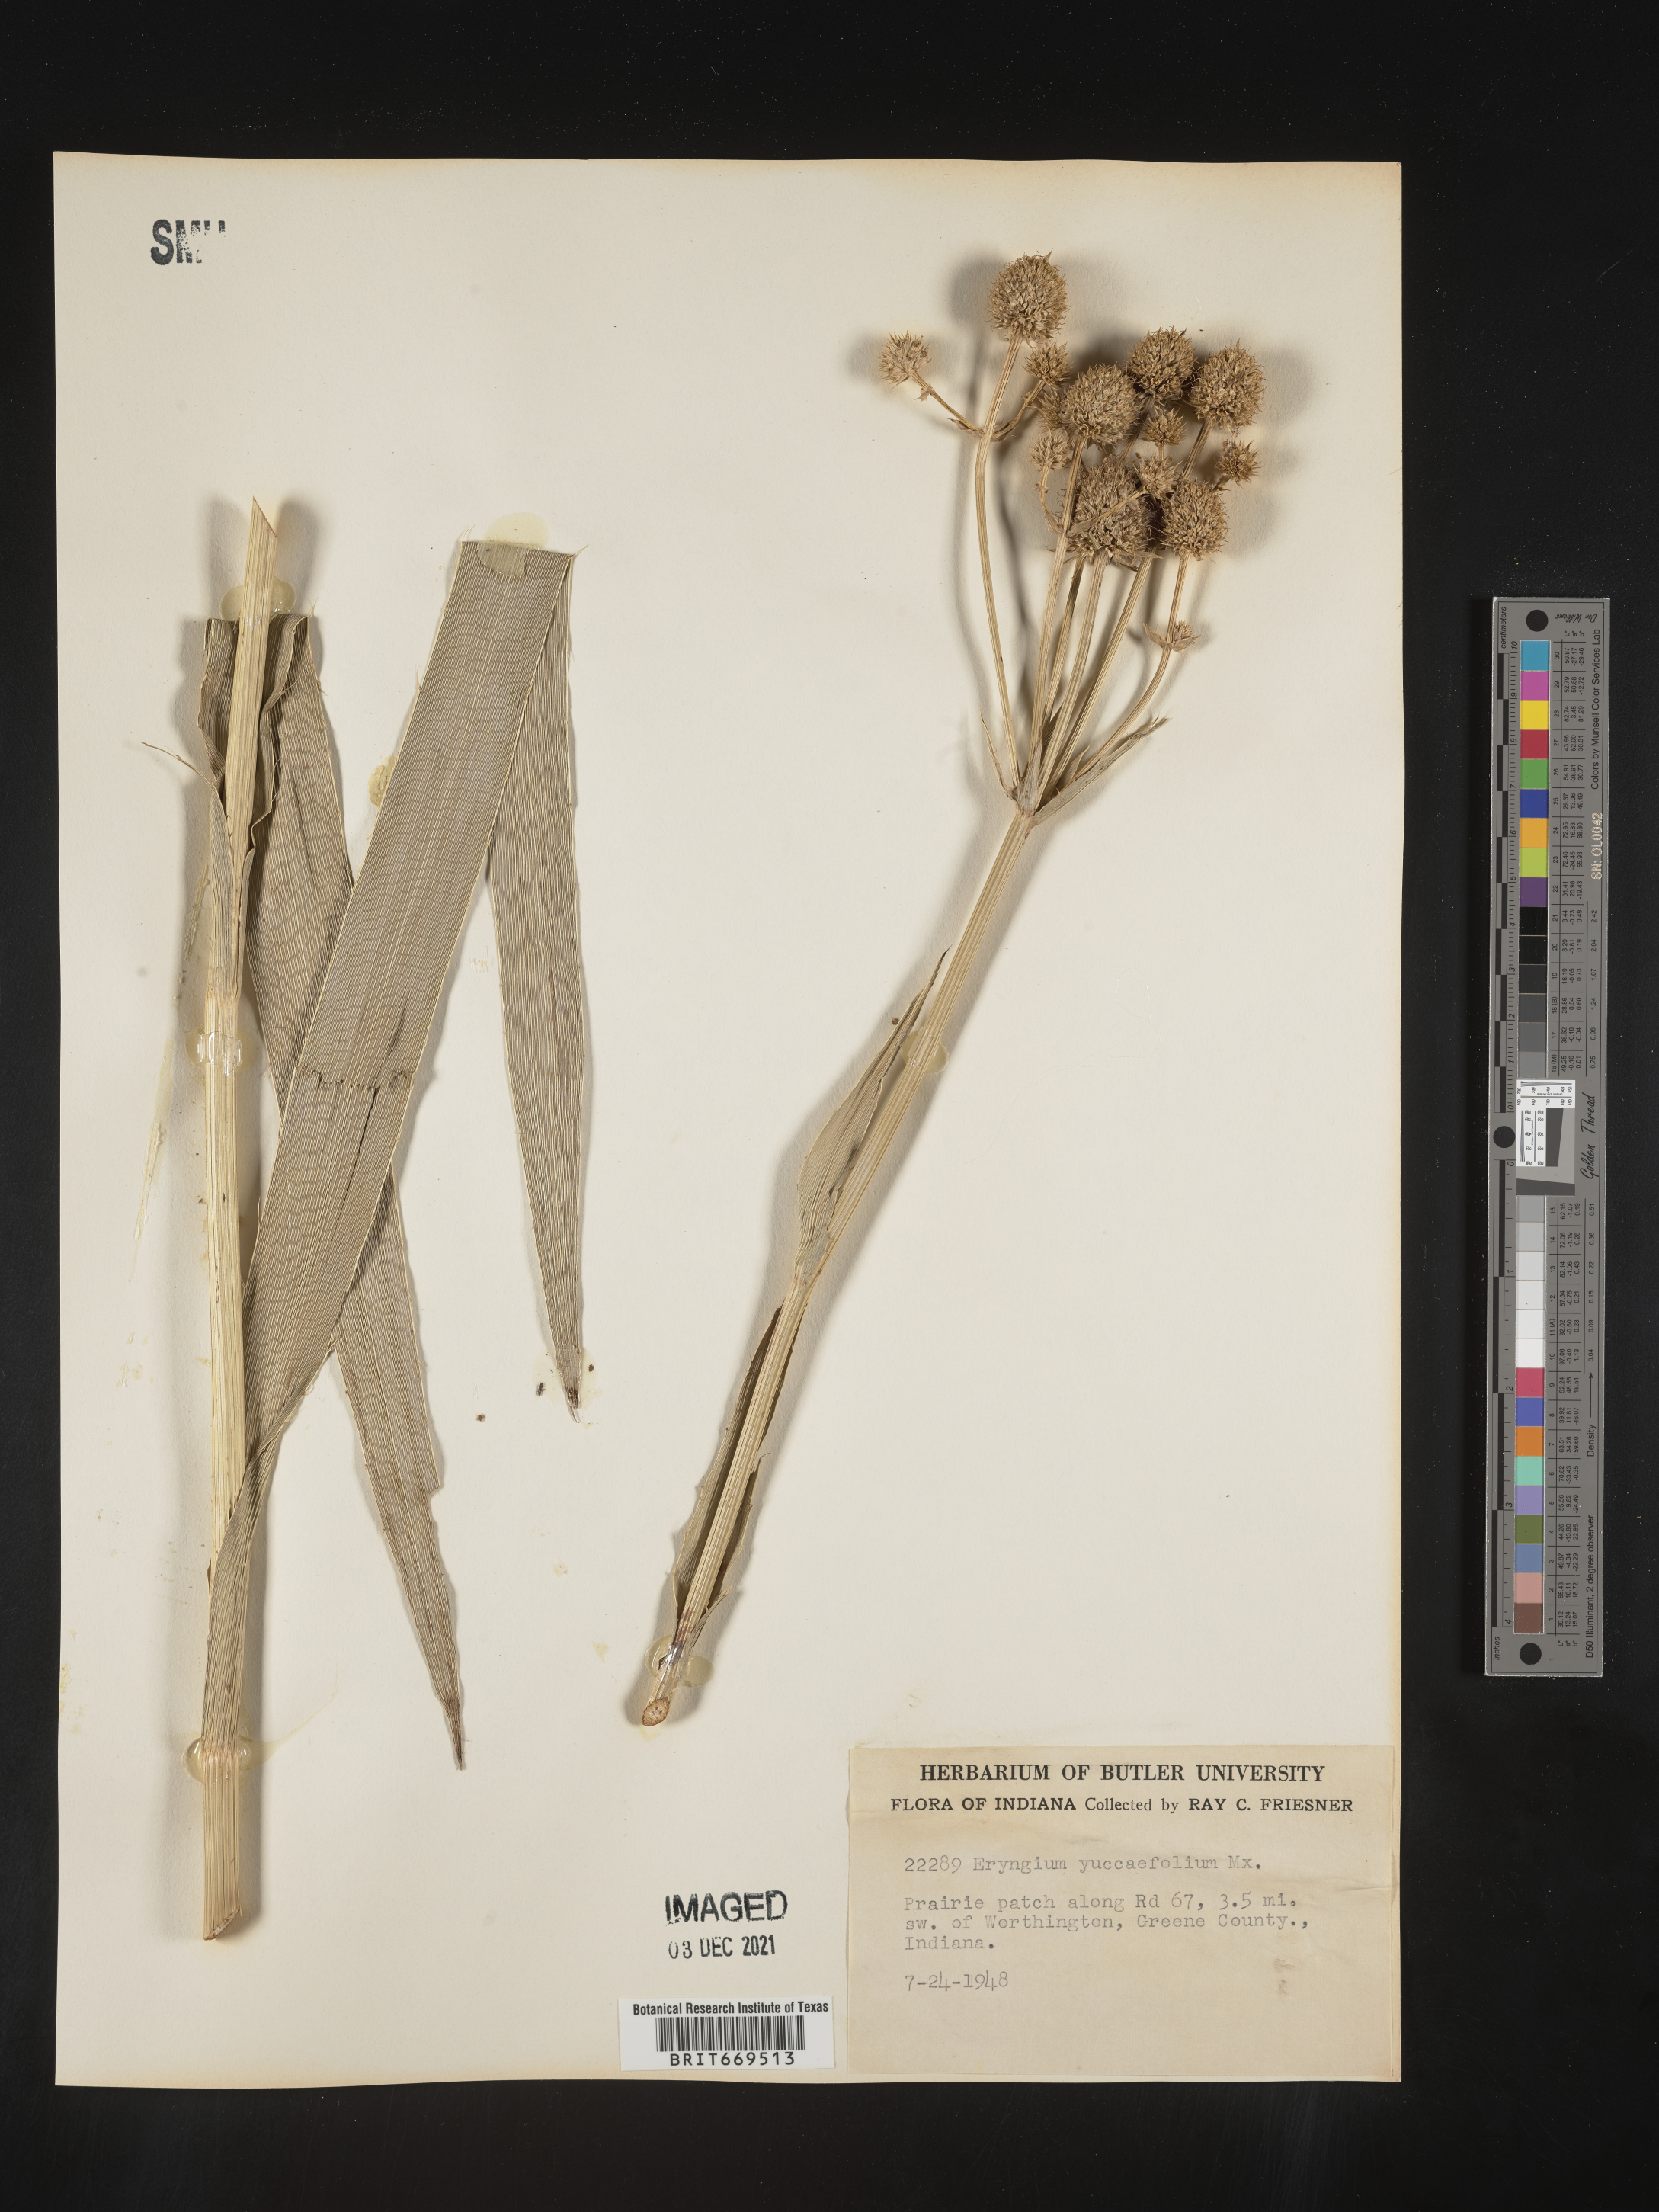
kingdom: Plantae
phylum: Tracheophyta
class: Magnoliopsida
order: Apiales
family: Apiaceae
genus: Eryngium
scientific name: Eryngium yuccifolium
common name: Button eryngo
